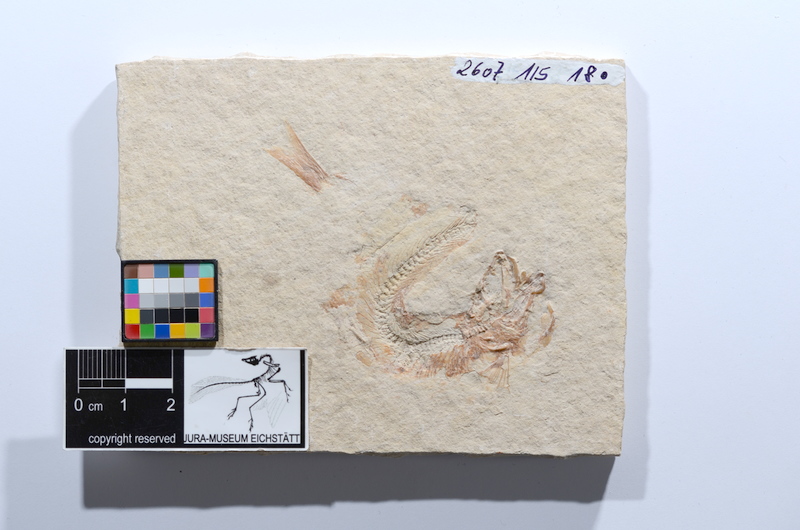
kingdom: Animalia
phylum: Chordata
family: Ascalaboidae
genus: Tharsis
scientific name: Tharsis dubius
